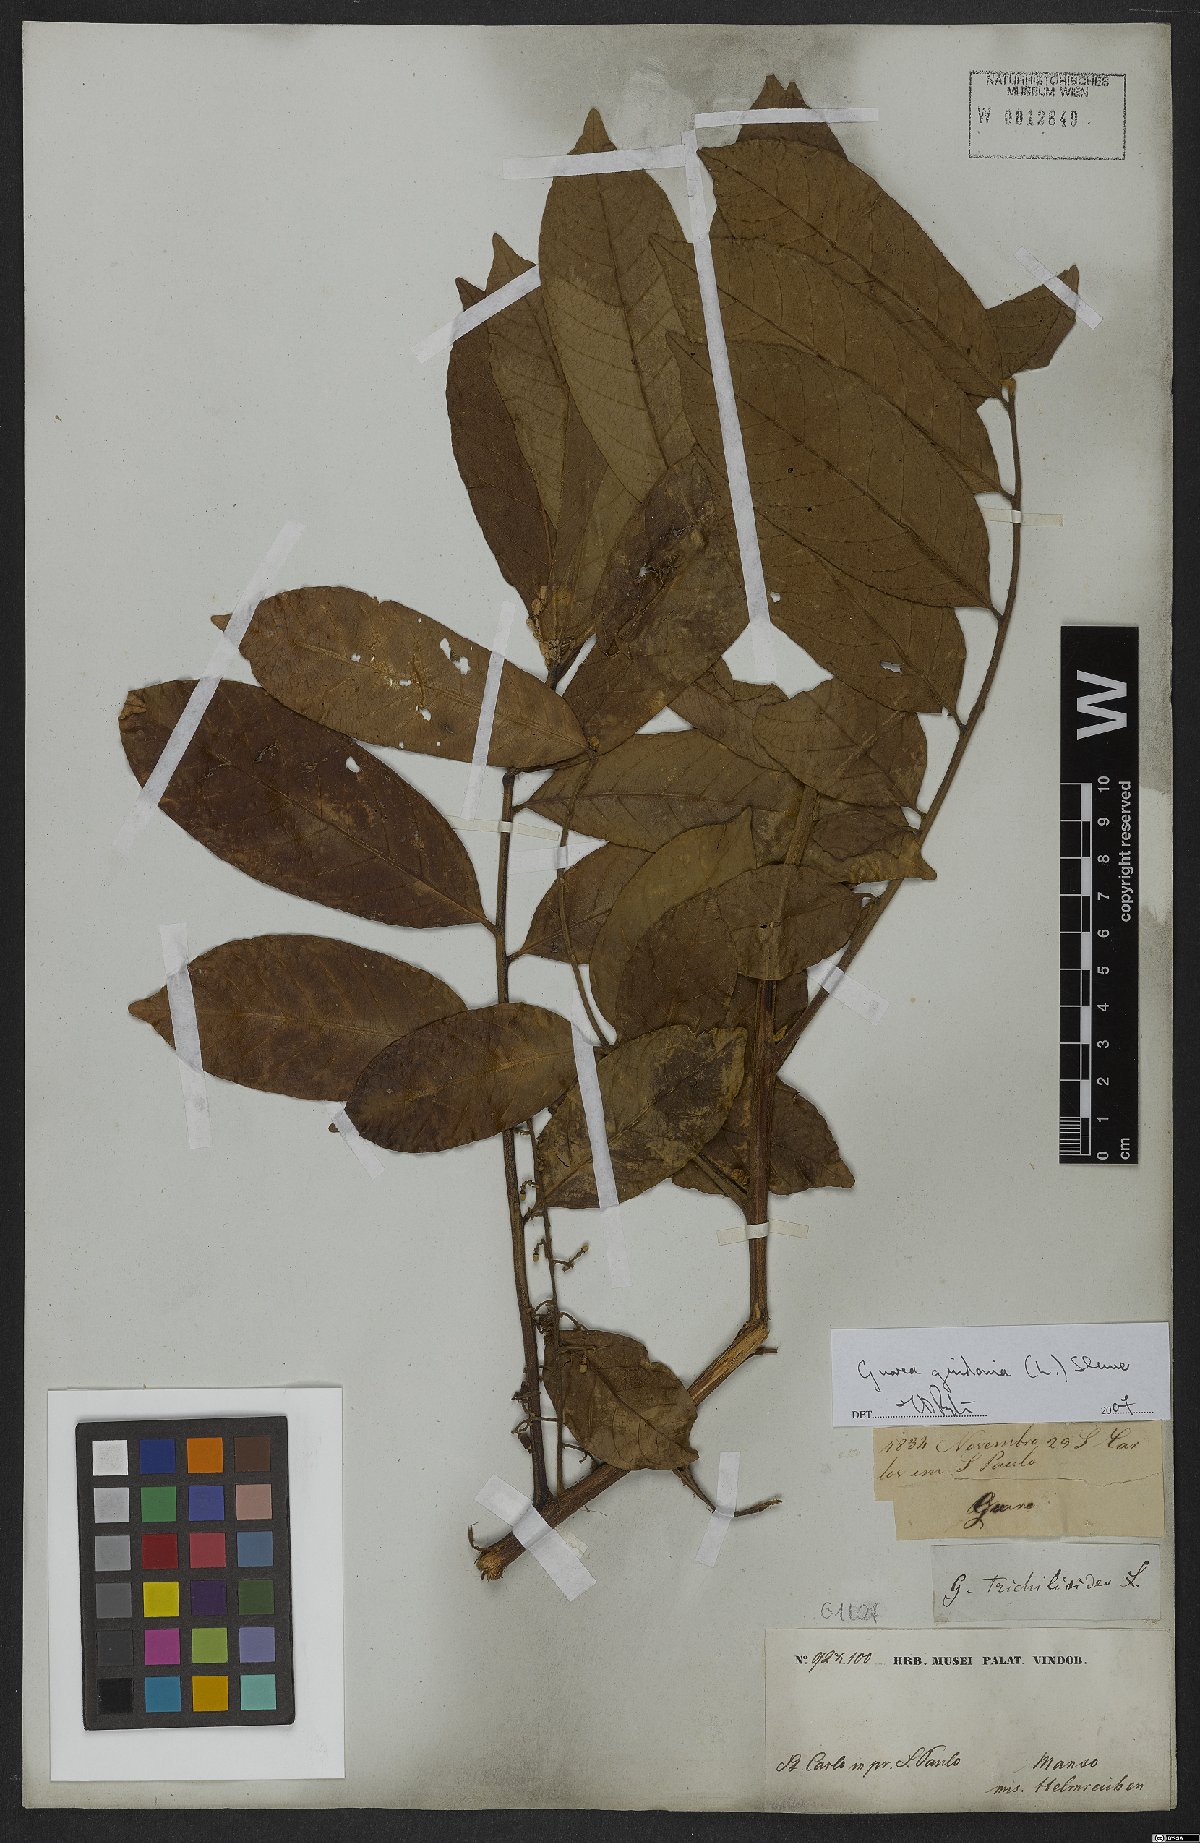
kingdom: Plantae
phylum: Tracheophyta
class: Magnoliopsida
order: Sapindales
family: Meliaceae
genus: Guarea
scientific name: Guarea guidonia
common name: American muskwood
